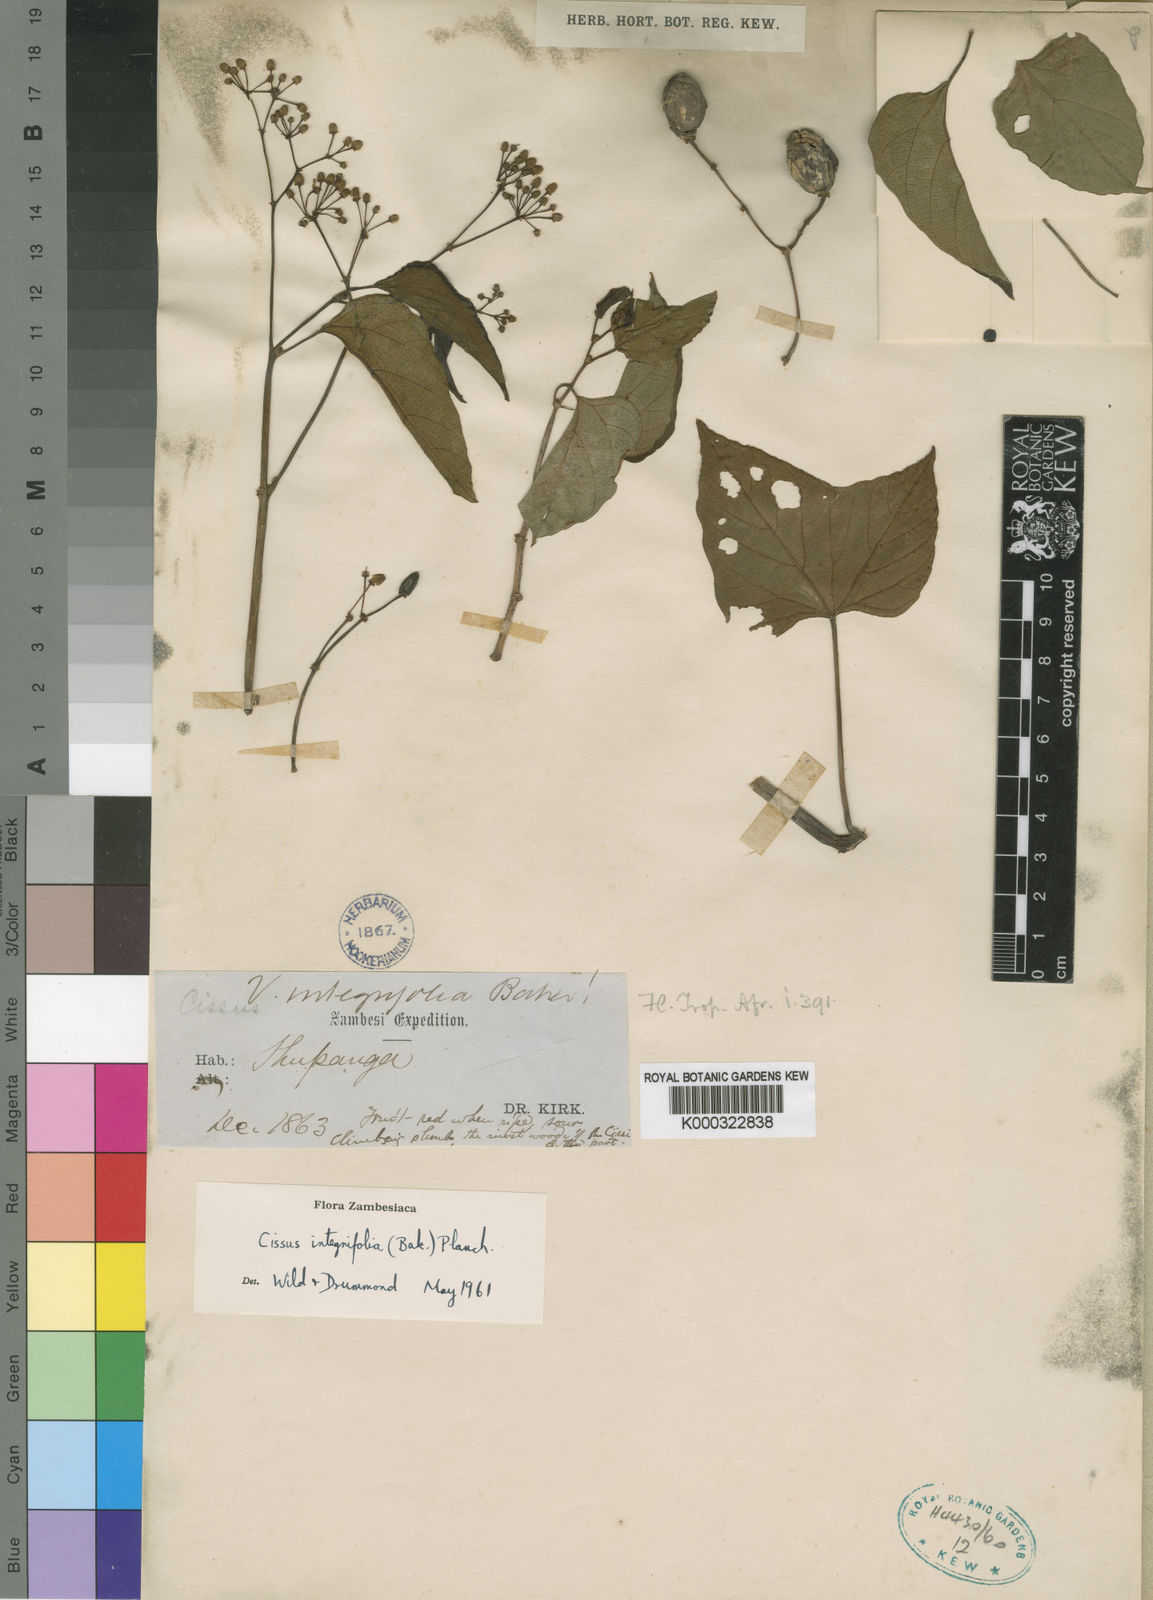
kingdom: Plantae
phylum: Tracheophyta
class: Magnoliopsida
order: Vitales
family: Vitaceae
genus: Cissus
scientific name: Cissus integrifolia
